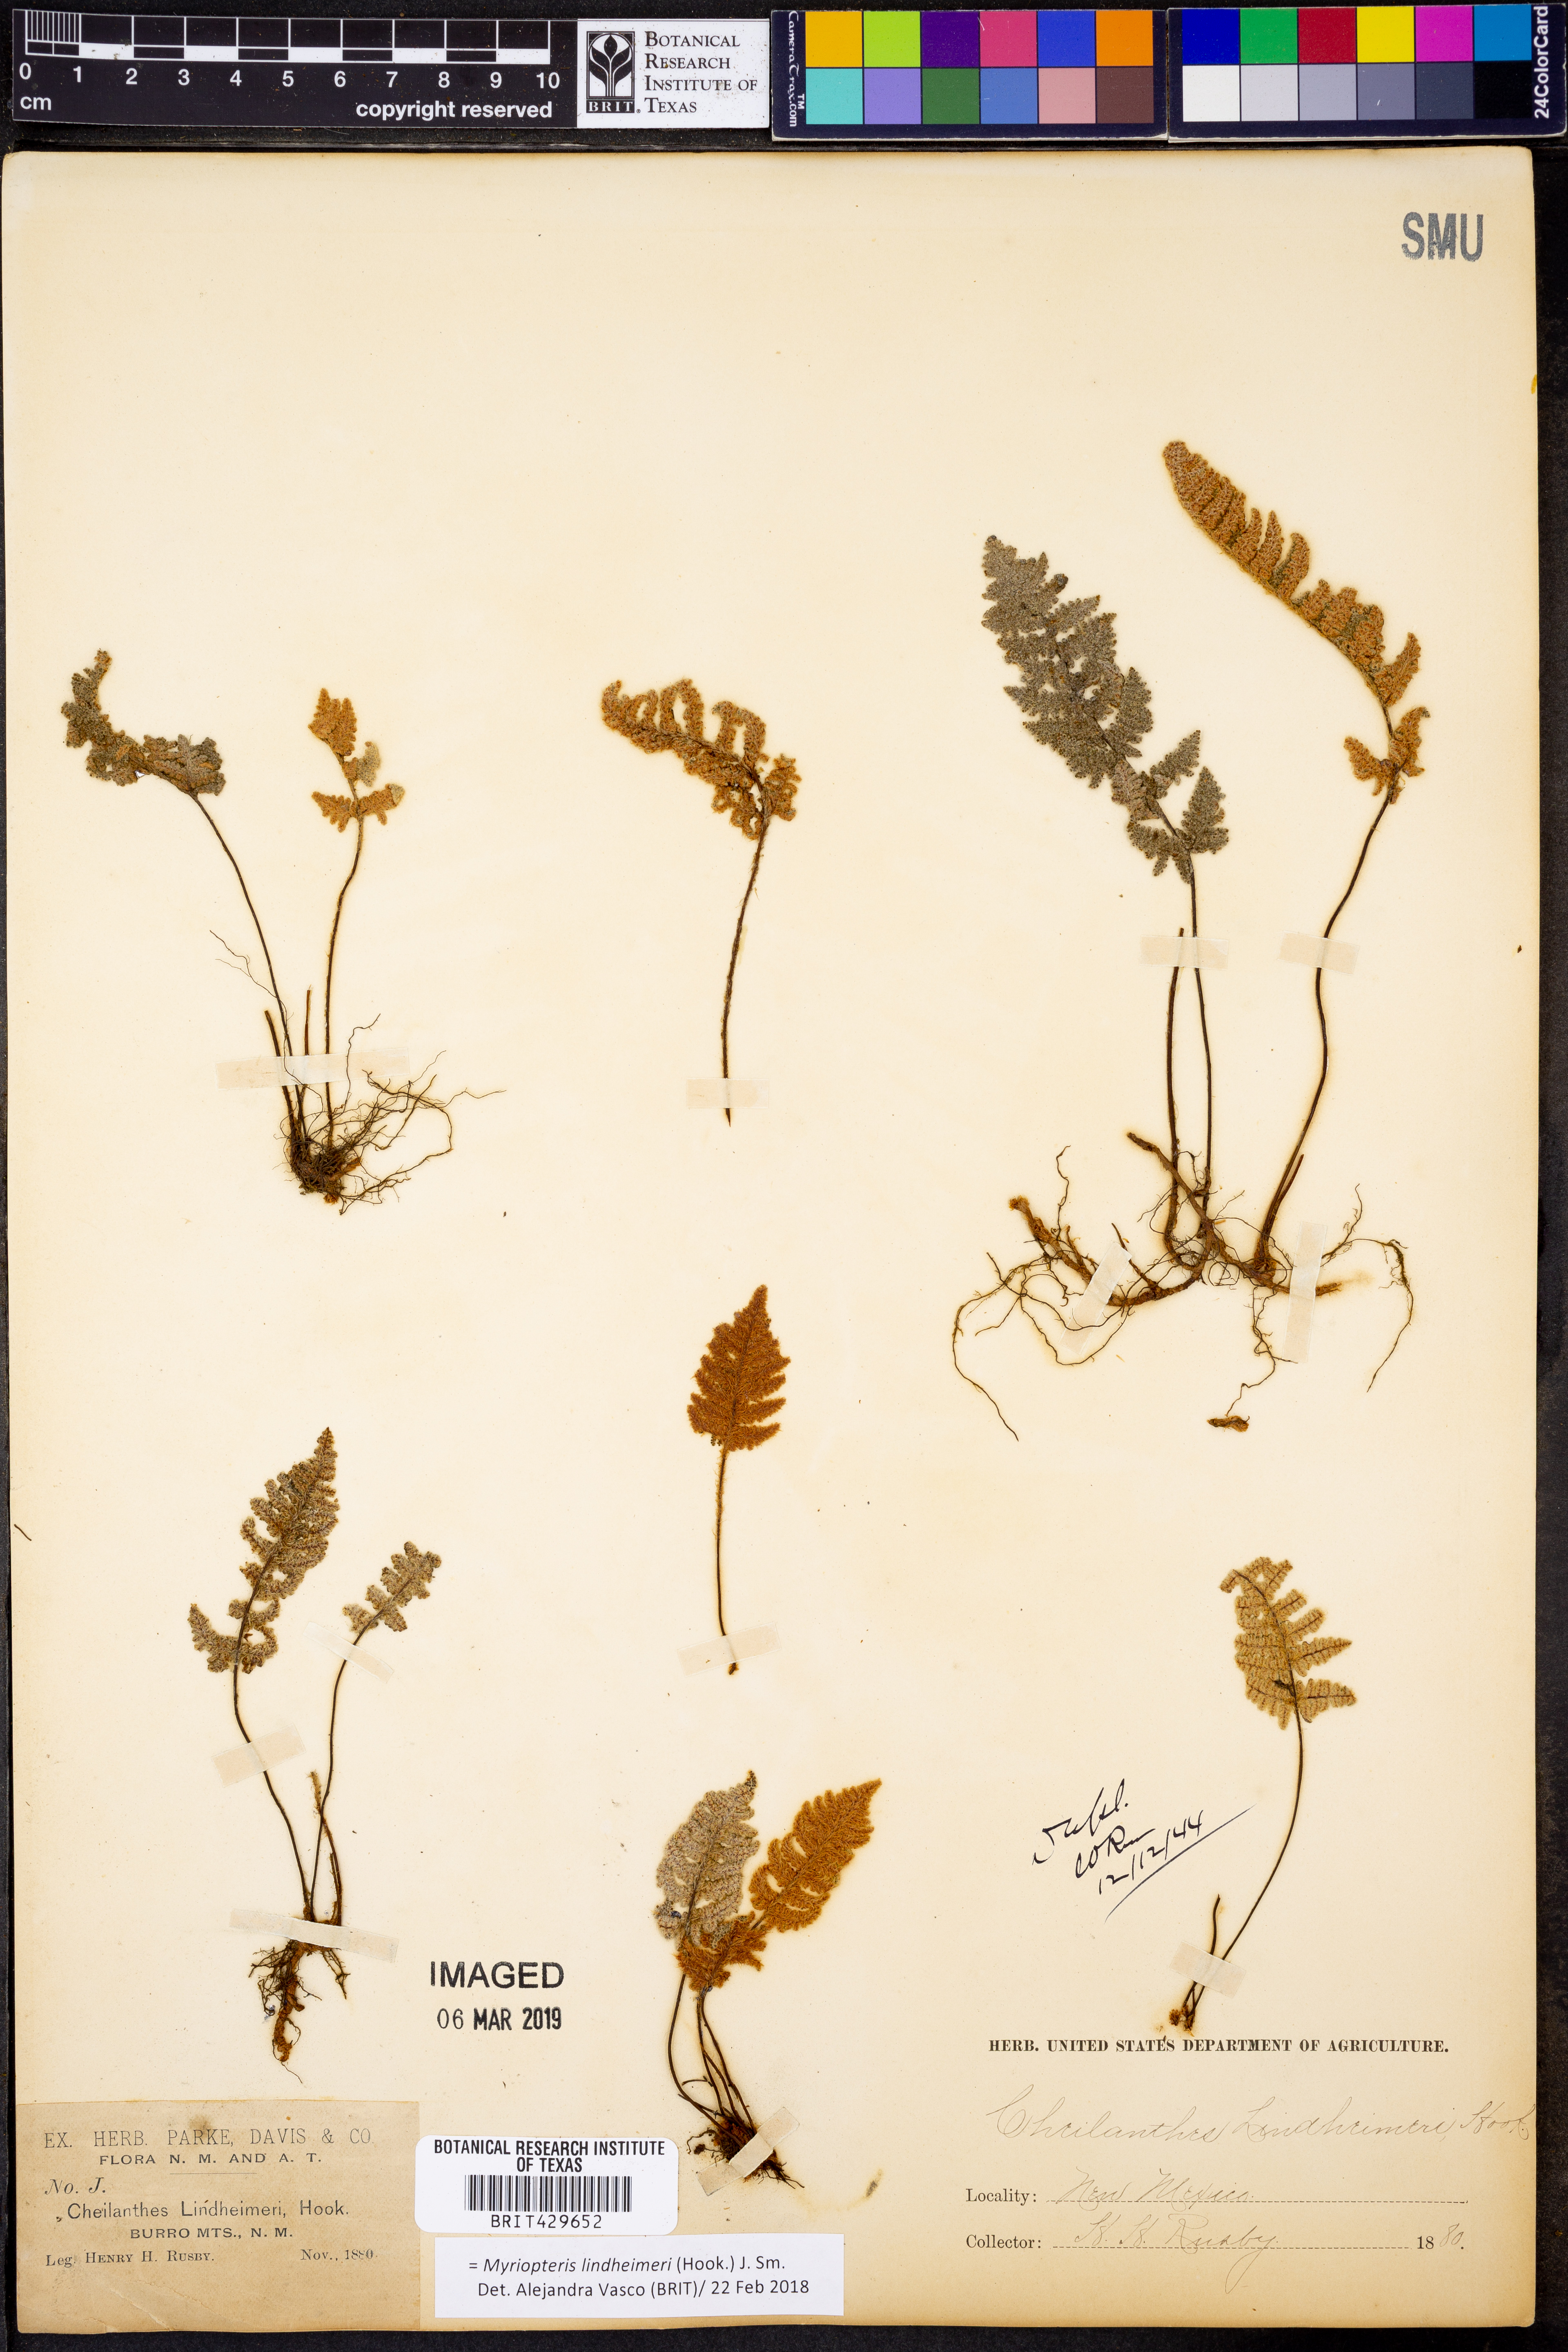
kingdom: Plantae
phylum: Tracheophyta
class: Polypodiopsida
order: Polypodiales
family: Pteridaceae
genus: Myriopteris
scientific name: Myriopteris lindheimeri
